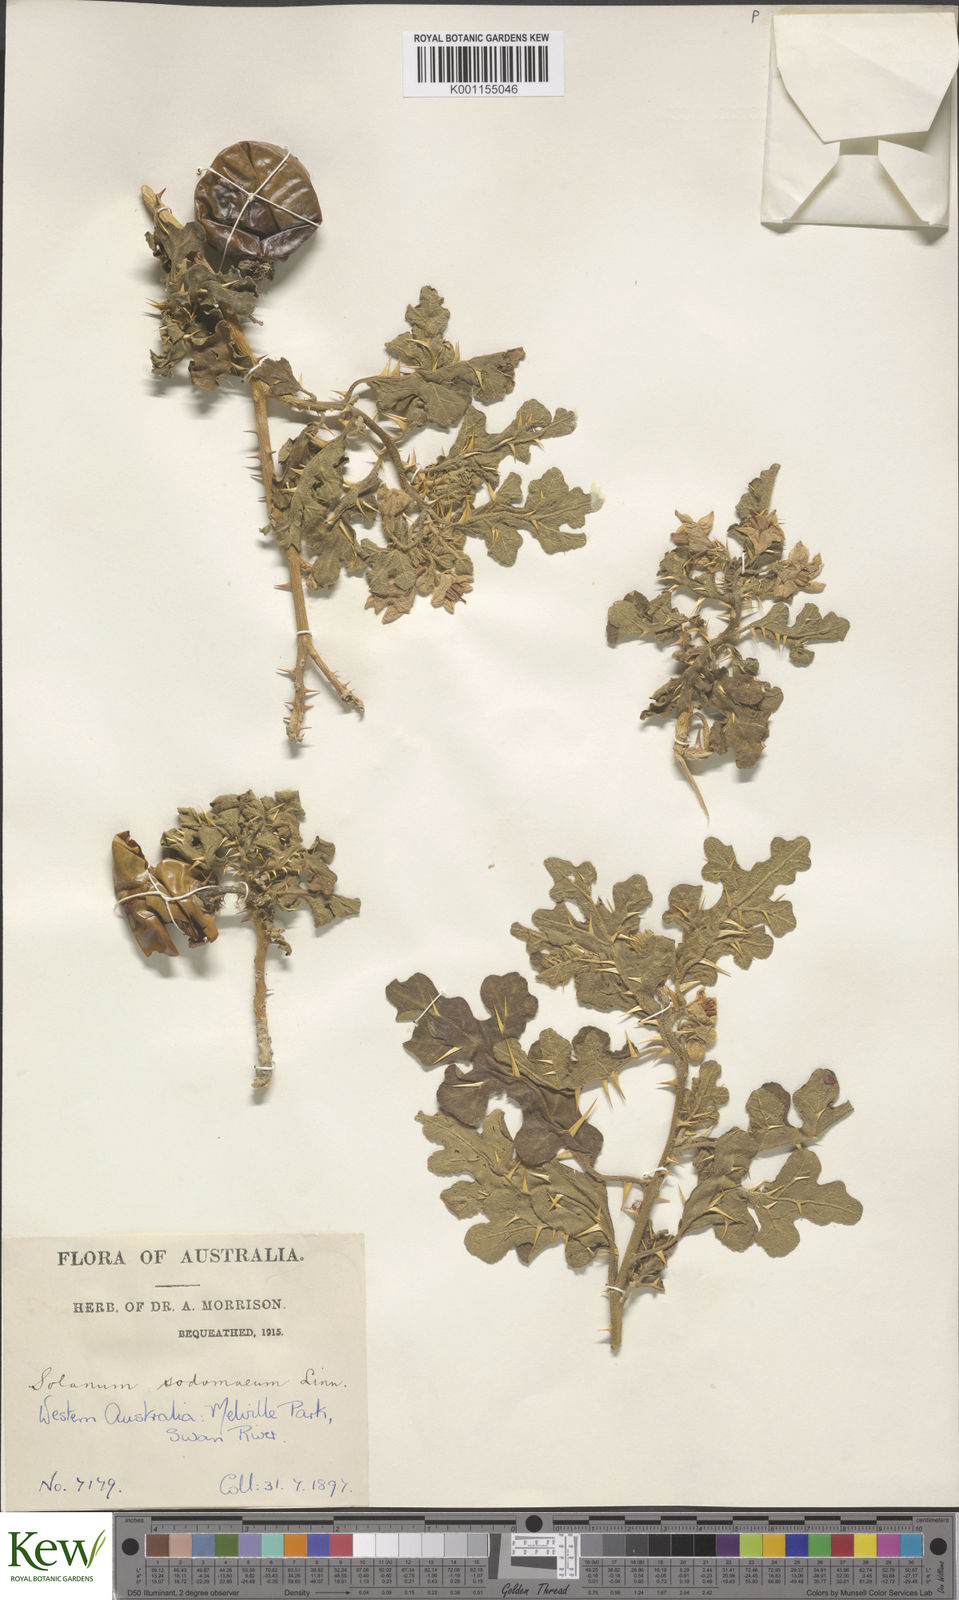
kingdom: Plantae
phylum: Tracheophyta
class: Magnoliopsida
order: Solanales
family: Solanaceae
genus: Solanum
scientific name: Solanum anguivi
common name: Forest bitterberry
